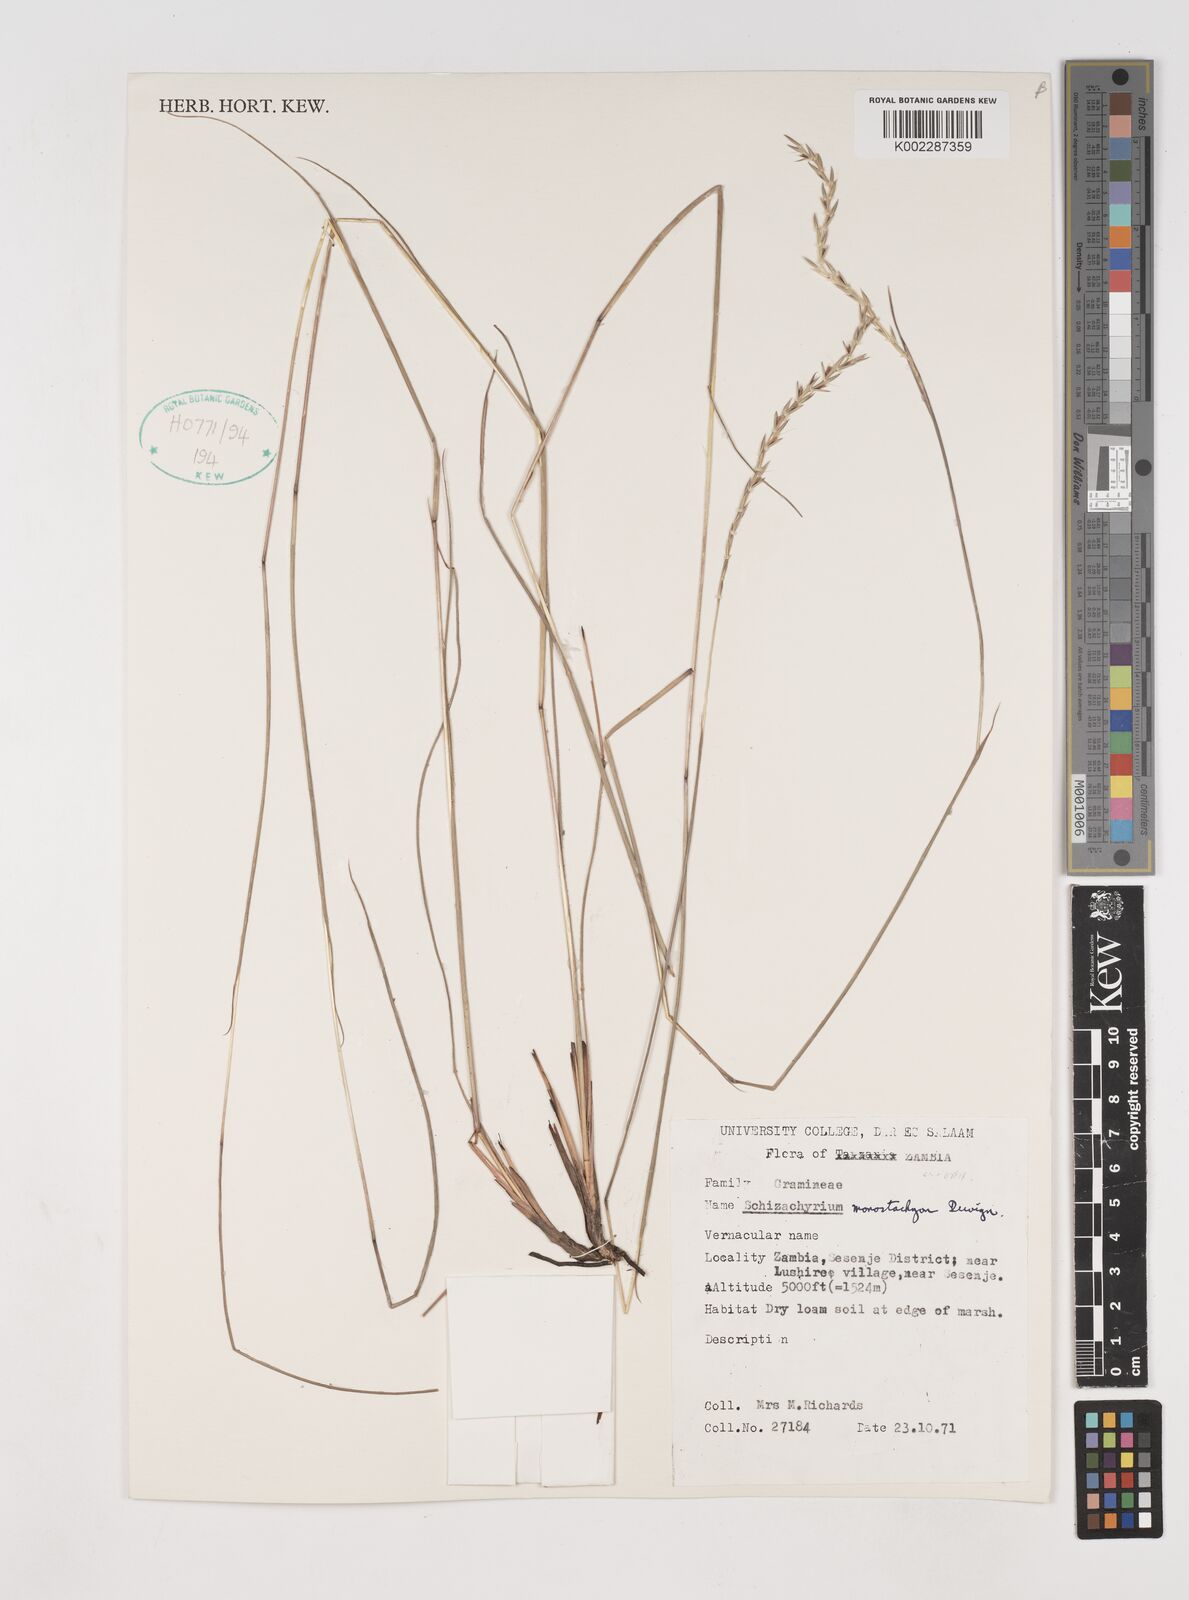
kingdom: Plantae
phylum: Tracheophyta
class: Liliopsida
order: Poales
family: Poaceae
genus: Schizachyrium
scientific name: Schizachyrium thollonii
